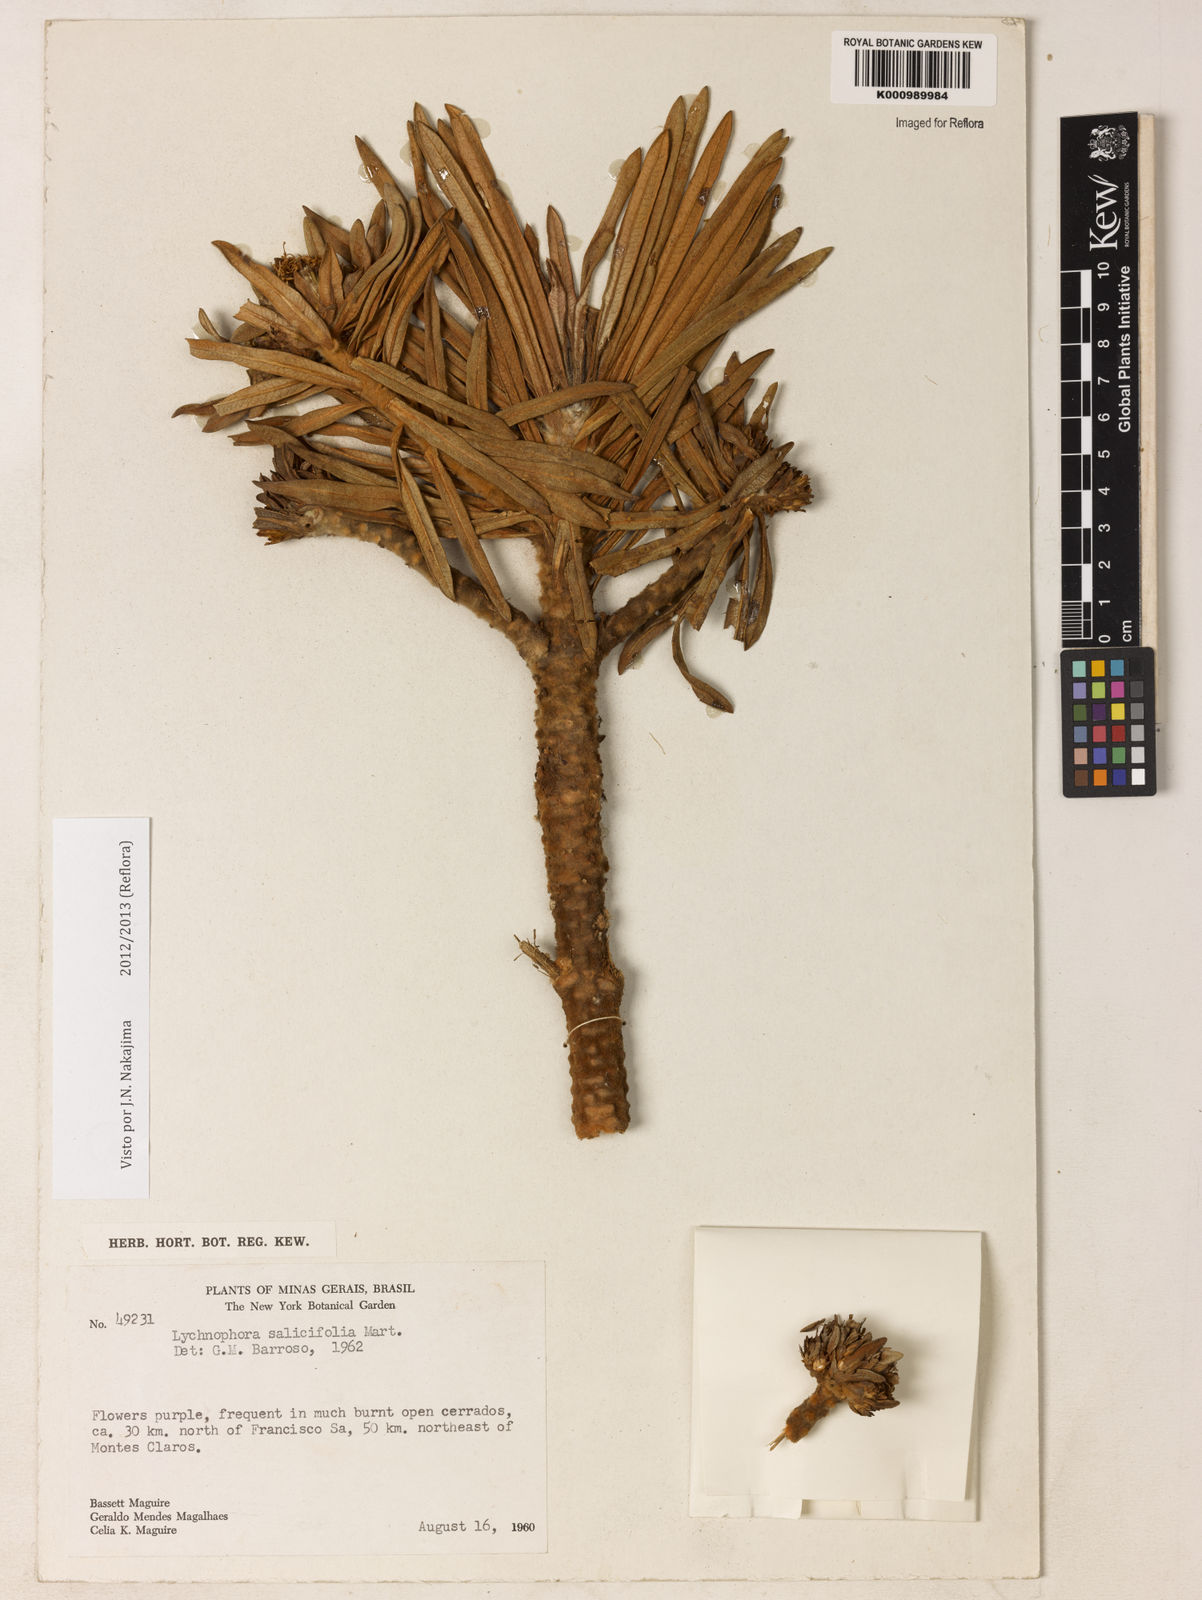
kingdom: Plantae
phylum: Tracheophyta
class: Magnoliopsida
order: Asterales
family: Asteraceae
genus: Lychnophora
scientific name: Lychnophora salicifolia
